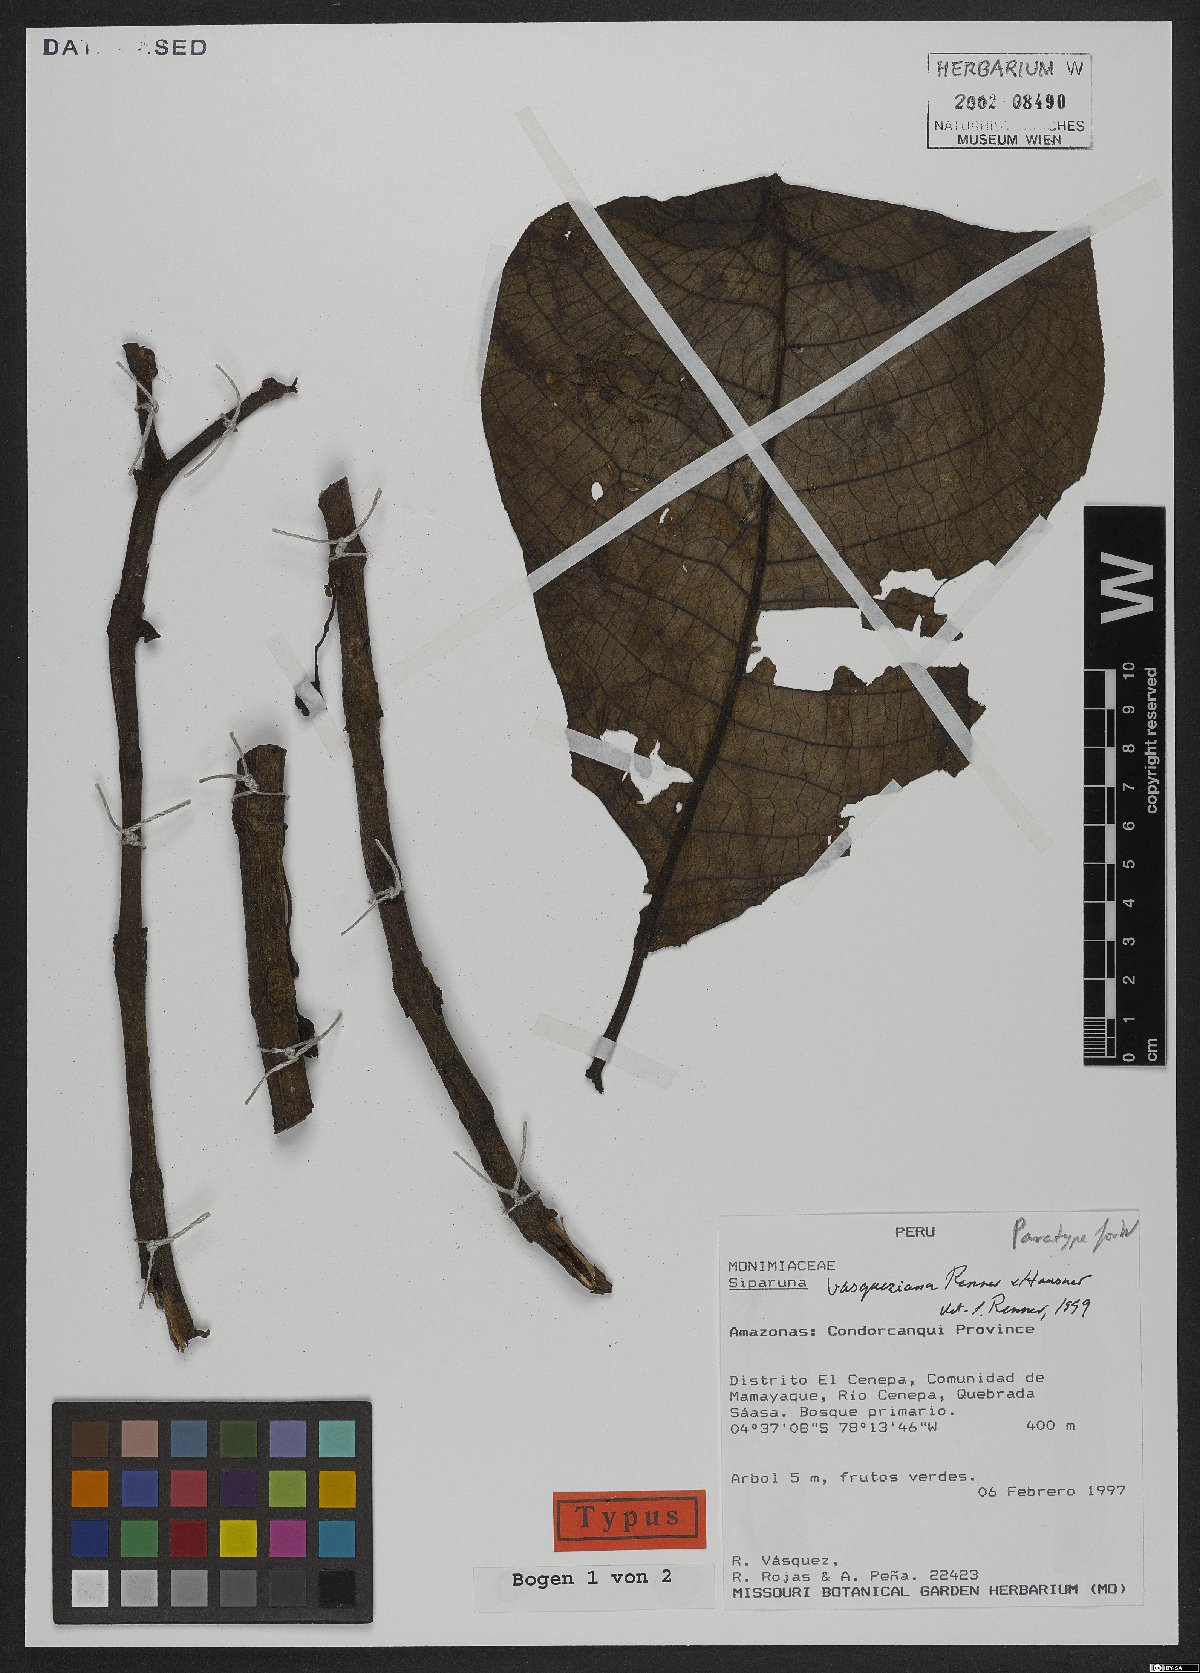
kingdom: Plantae
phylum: Tracheophyta
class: Magnoliopsida
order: Laurales
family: Siparunaceae
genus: Siparuna
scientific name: Siparuna vasqueziana
